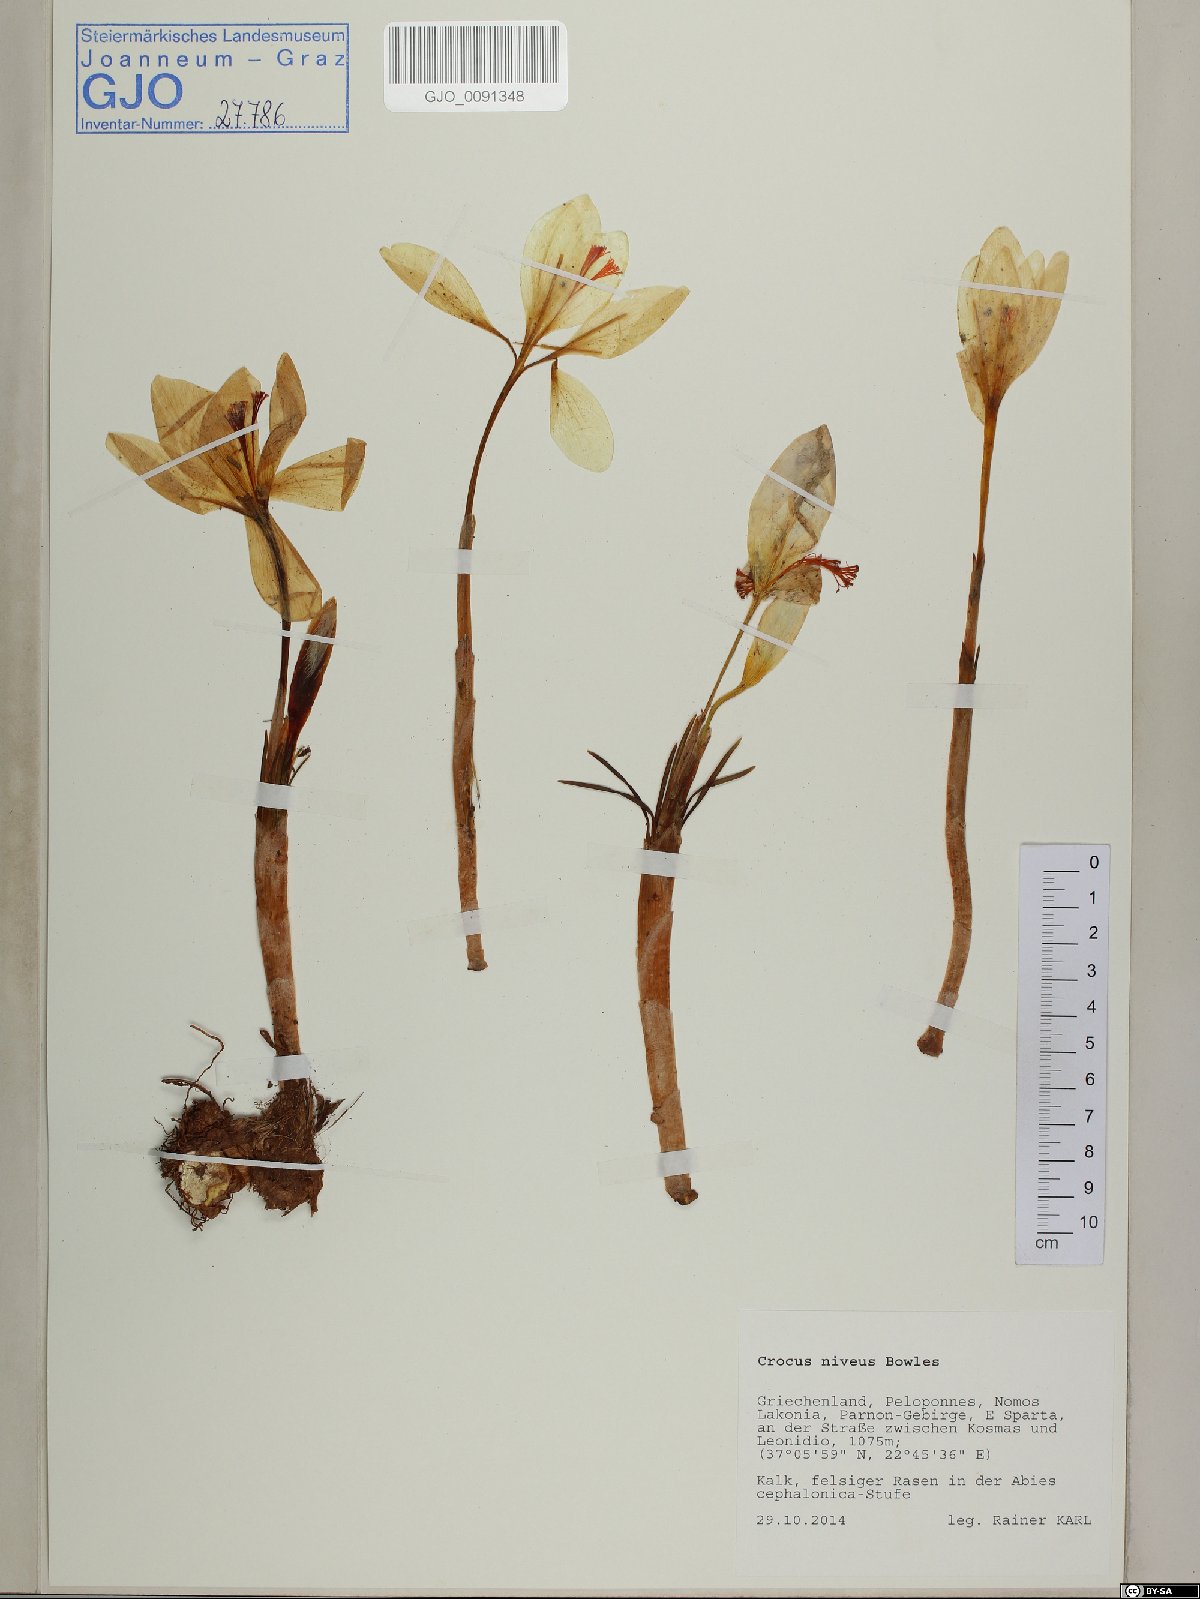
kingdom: Plantae
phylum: Tracheophyta
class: Liliopsida
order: Asparagales
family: Iridaceae
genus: Crocus
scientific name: Crocus niveus
